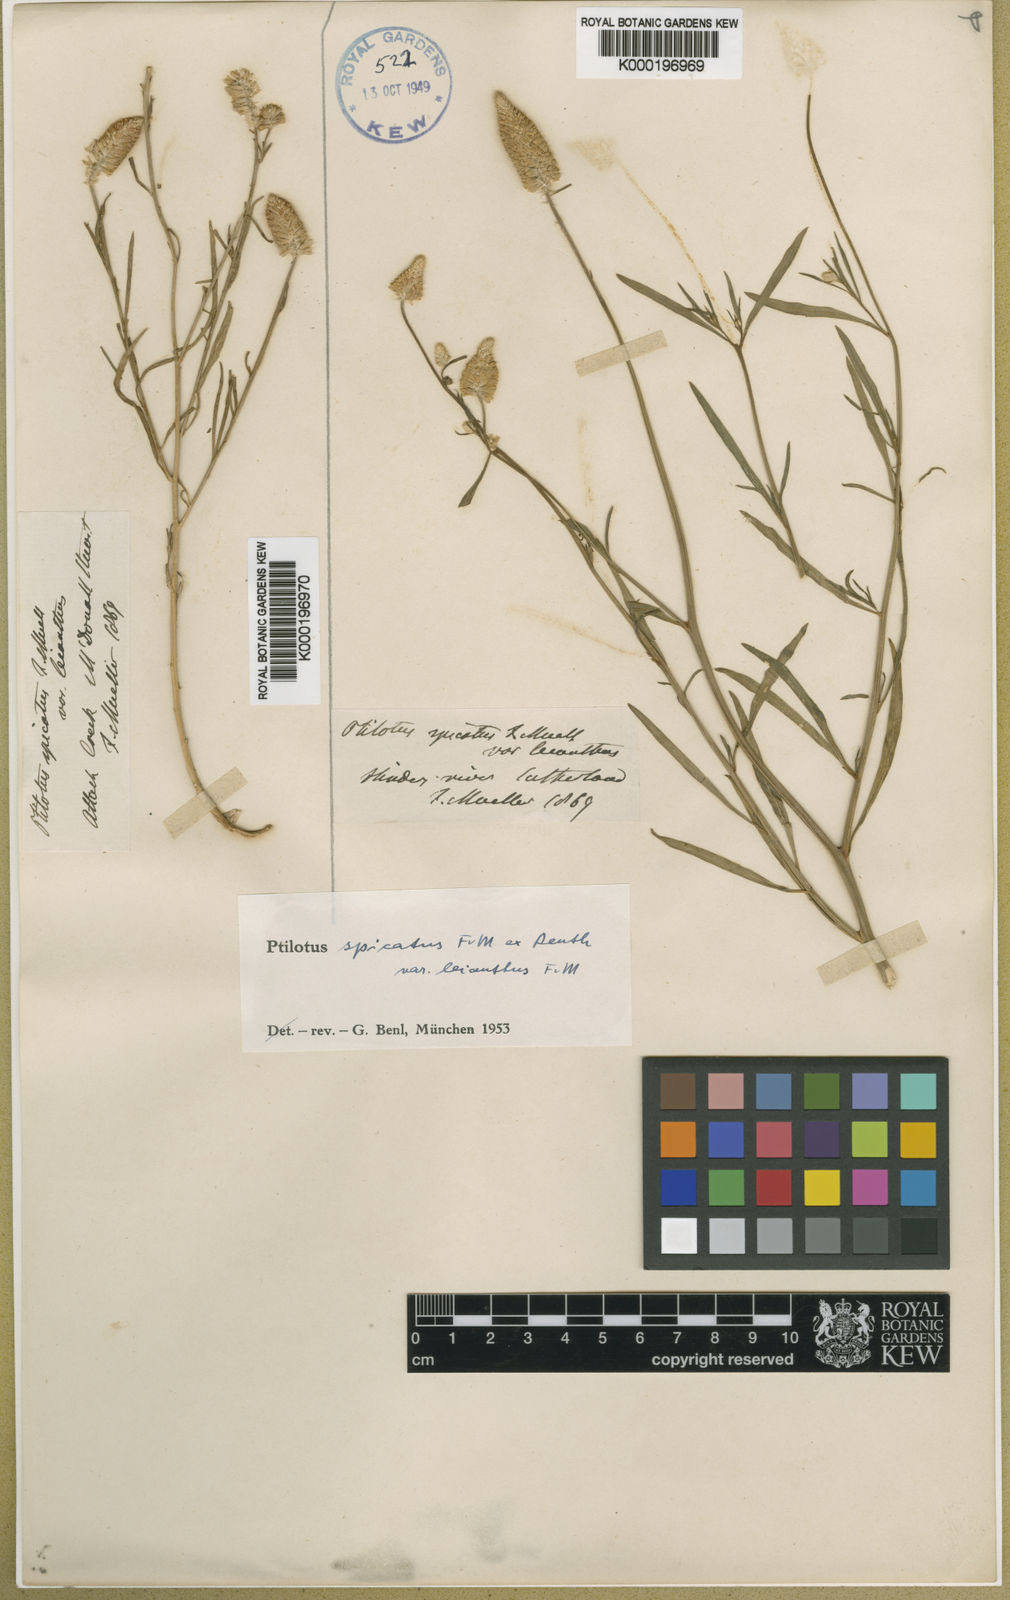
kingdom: Plantae
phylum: Tracheophyta
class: Magnoliopsida
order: Caryophyllales
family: Amaranthaceae
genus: Ptilotus
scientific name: Ptilotus spicatus
